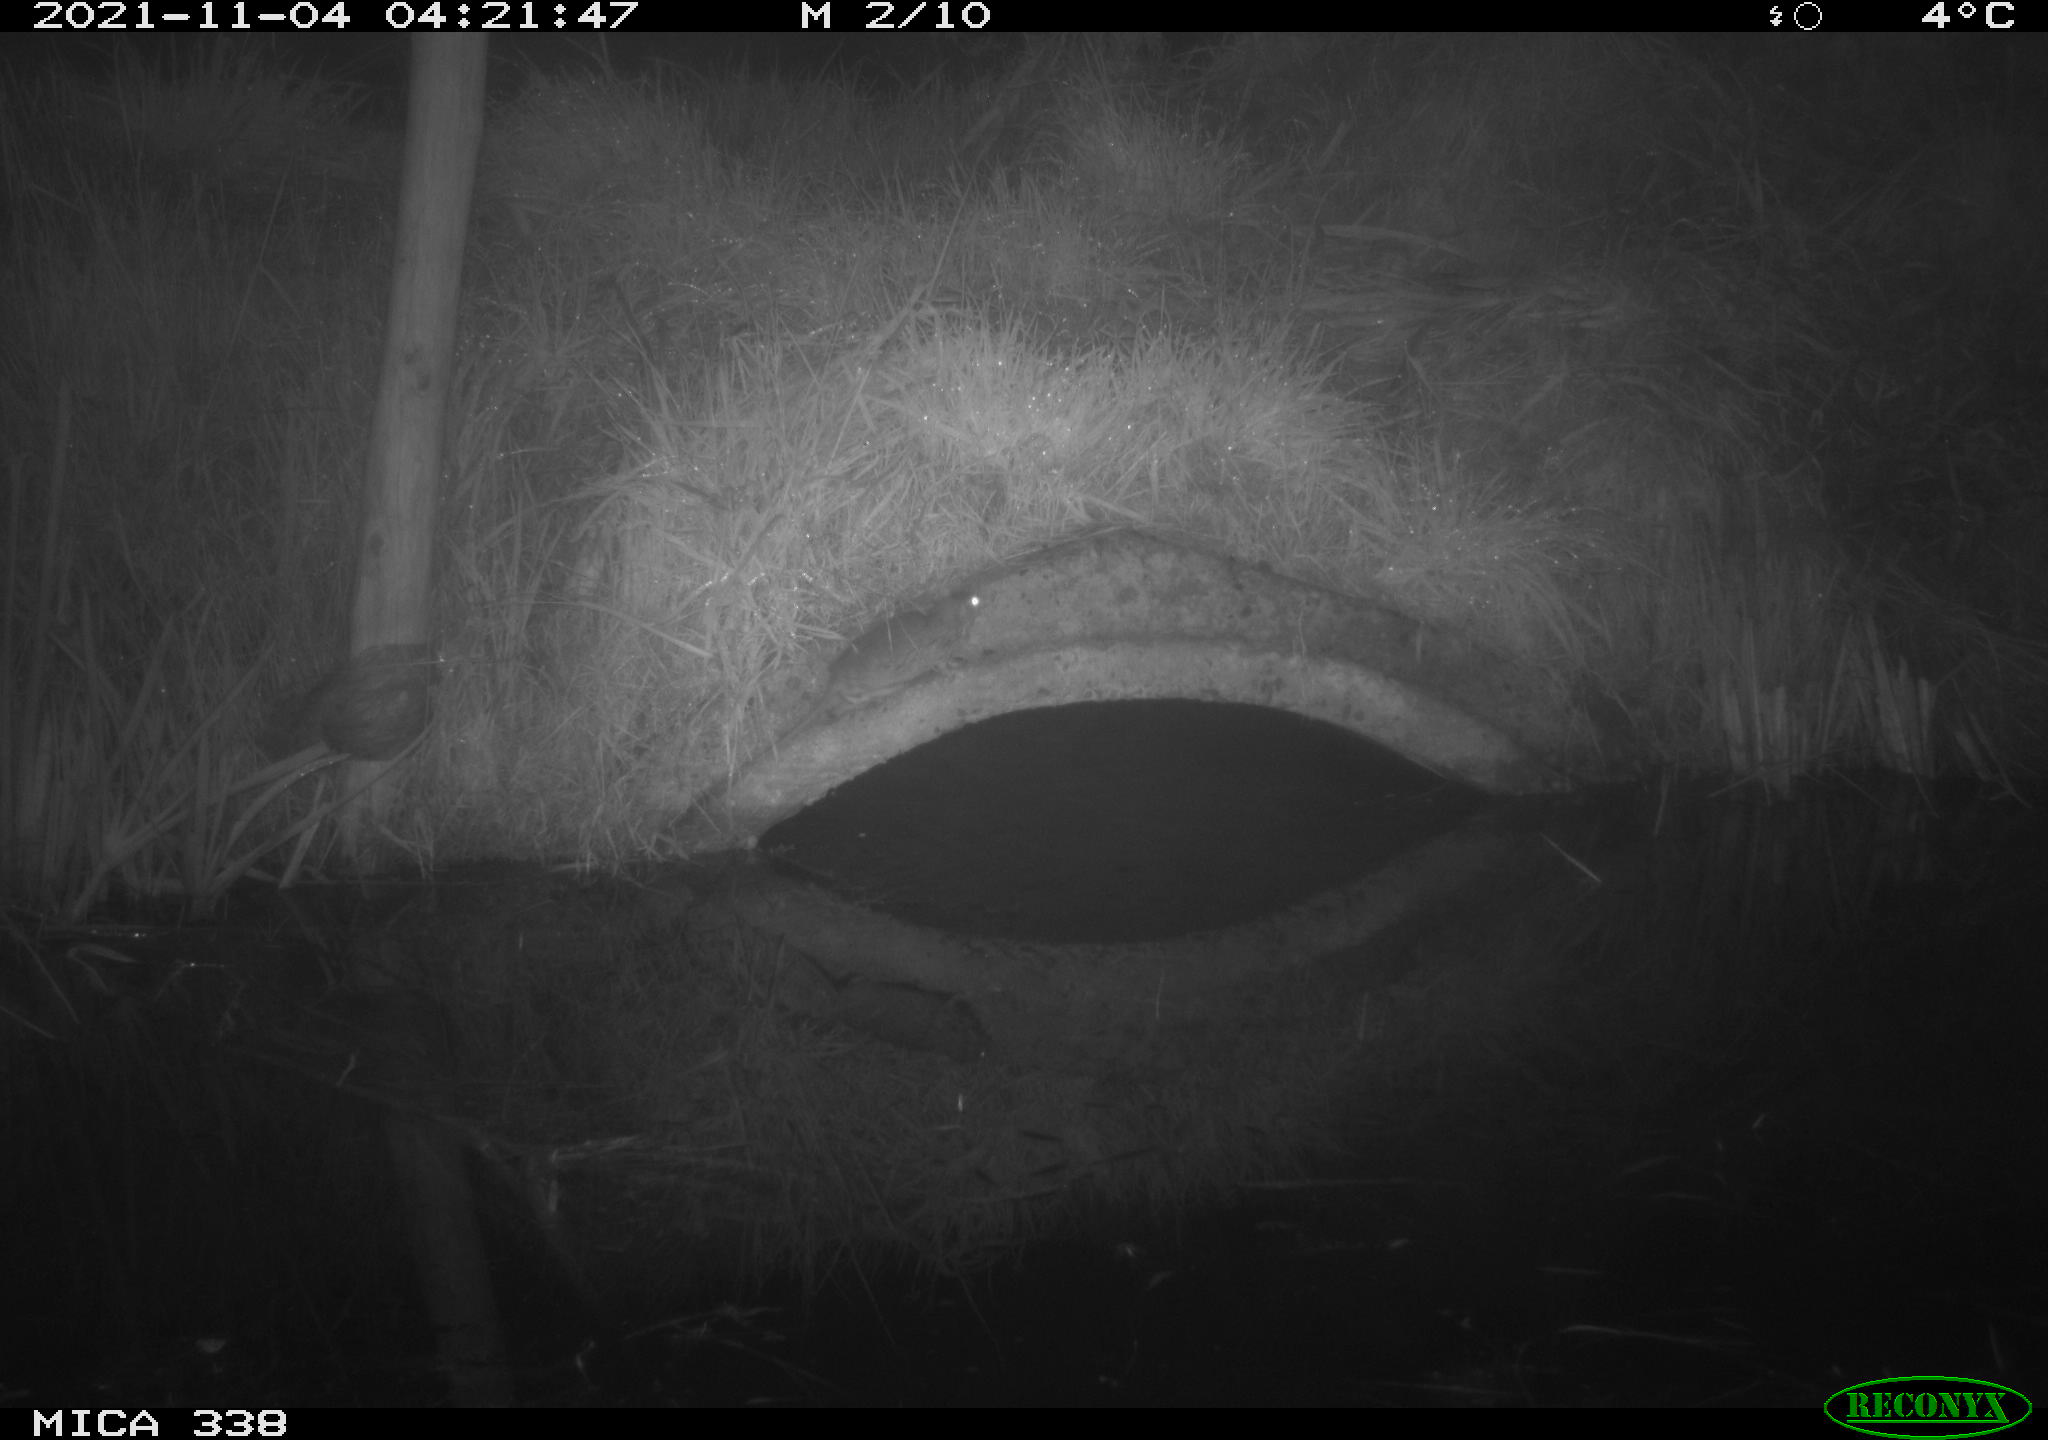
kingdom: Animalia
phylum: Chordata
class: Mammalia
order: Rodentia
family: Muridae
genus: Rattus
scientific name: Rattus norvegicus
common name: Brown rat
